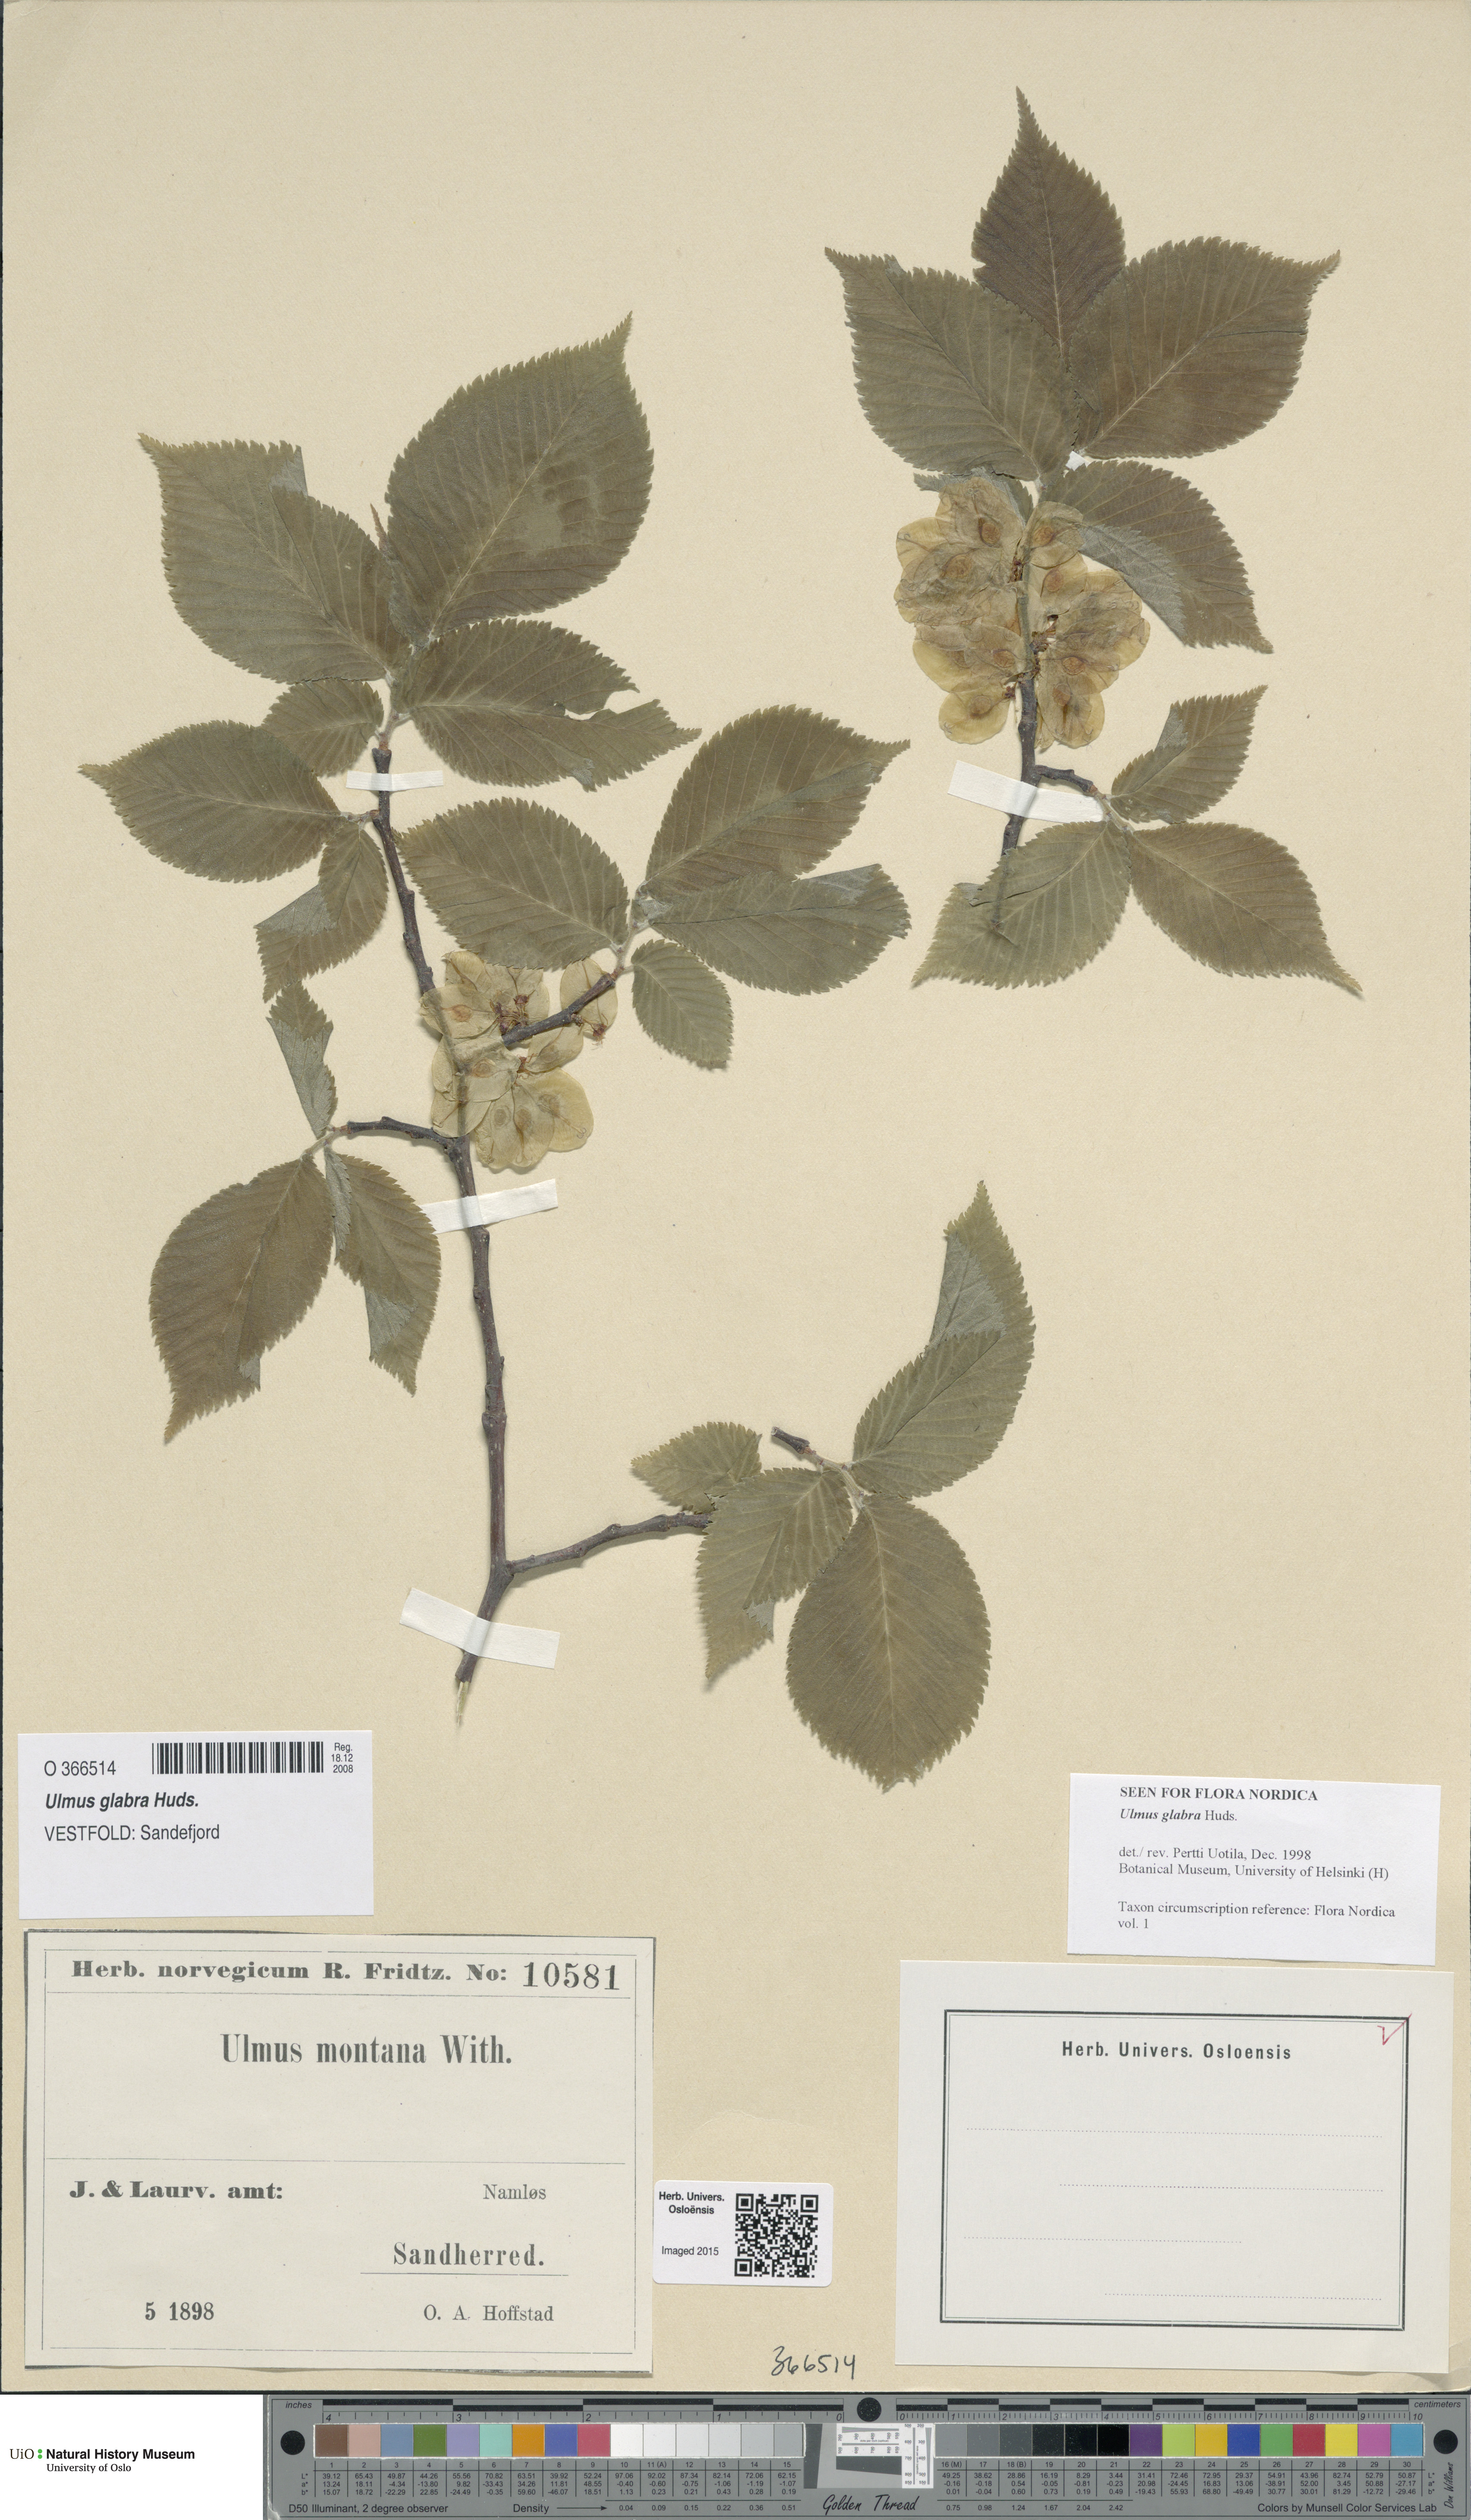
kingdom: Plantae
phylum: Tracheophyta
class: Magnoliopsida
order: Rosales
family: Ulmaceae
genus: Ulmus
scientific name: Ulmus glabra
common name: Wych elm
